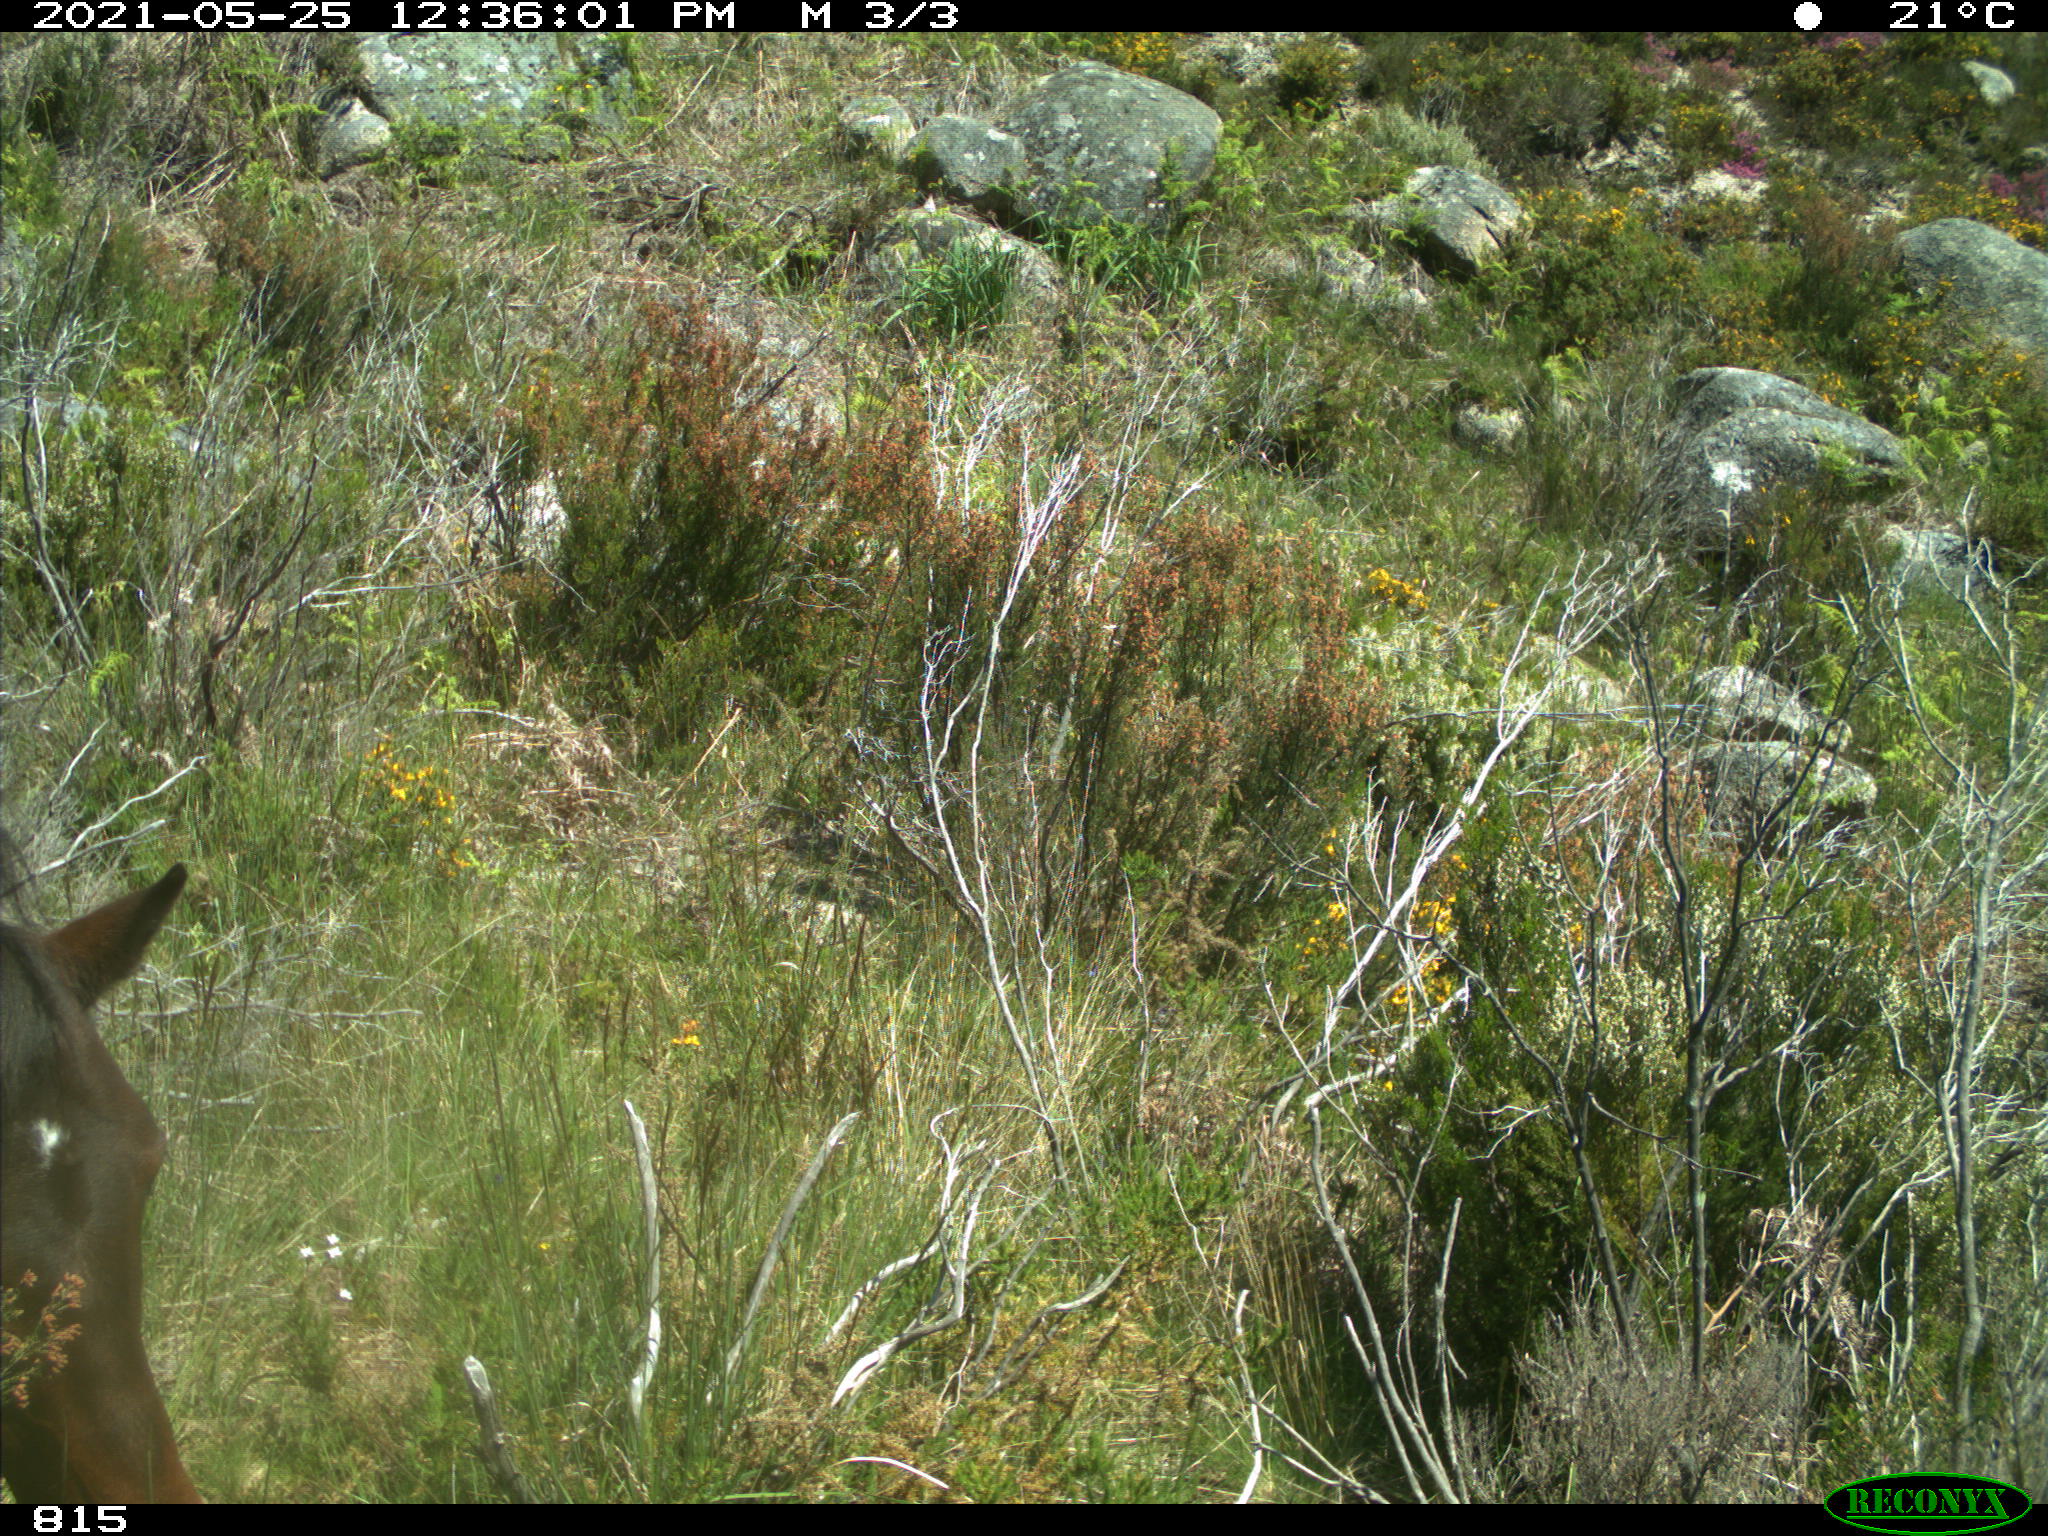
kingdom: Animalia
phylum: Chordata
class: Mammalia
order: Perissodactyla
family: Equidae
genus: Equus
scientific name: Equus caballus
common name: Horse
